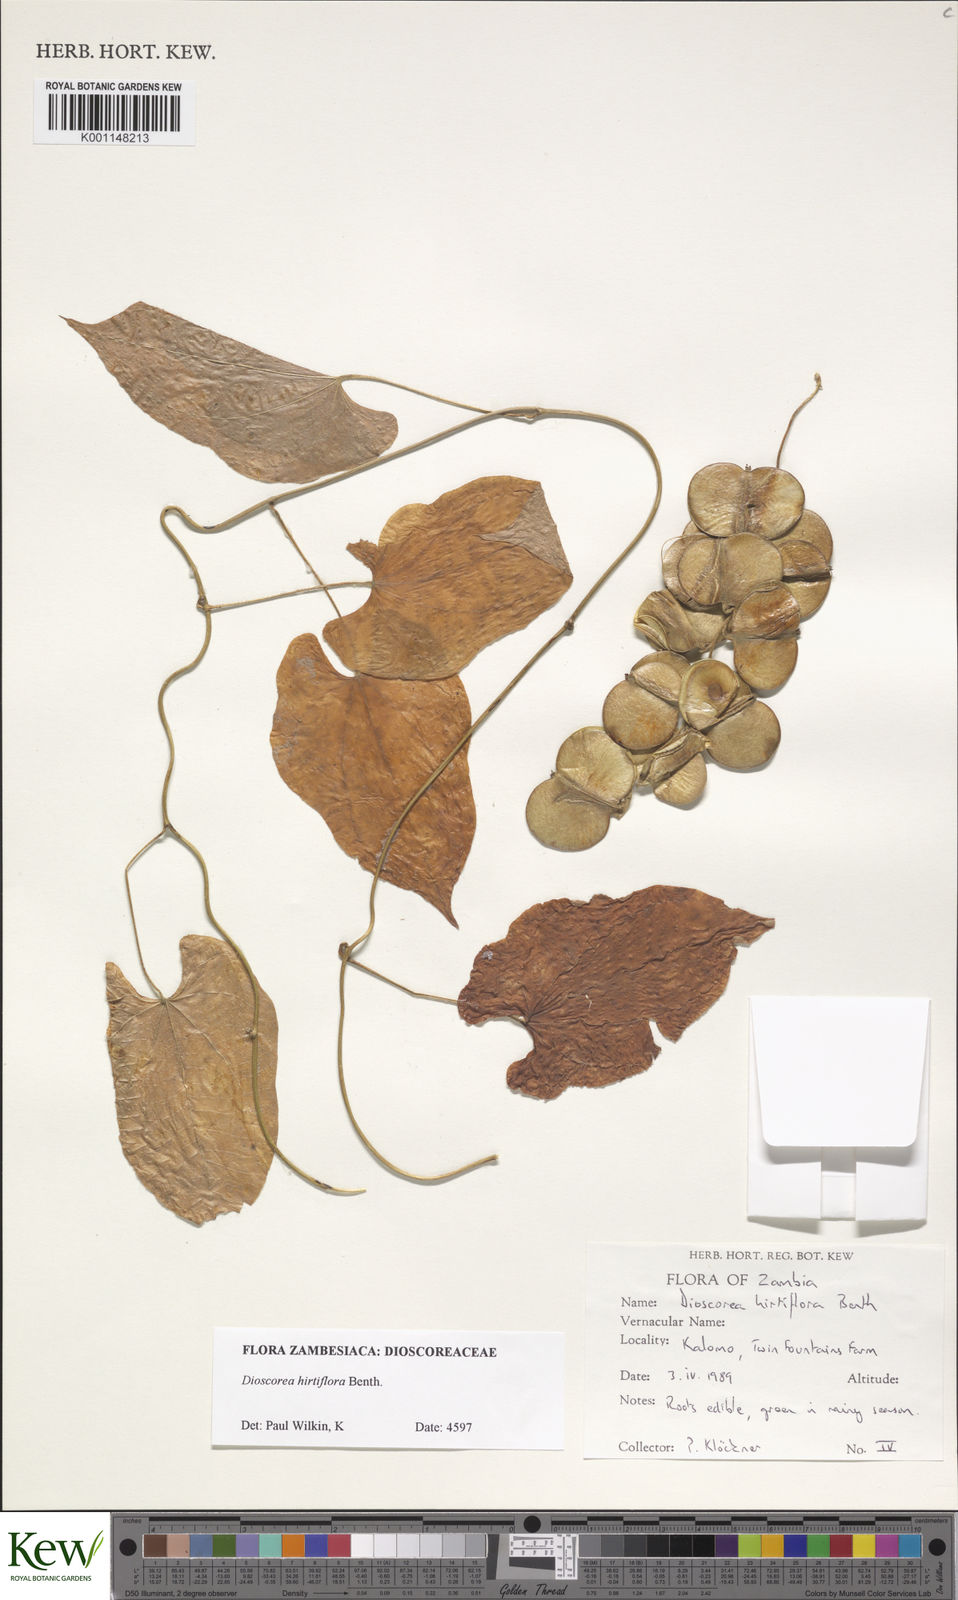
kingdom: Plantae
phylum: Tracheophyta
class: Liliopsida
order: Dioscoreales
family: Dioscoreaceae
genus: Dioscorea
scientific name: Dioscorea hirtiflora
